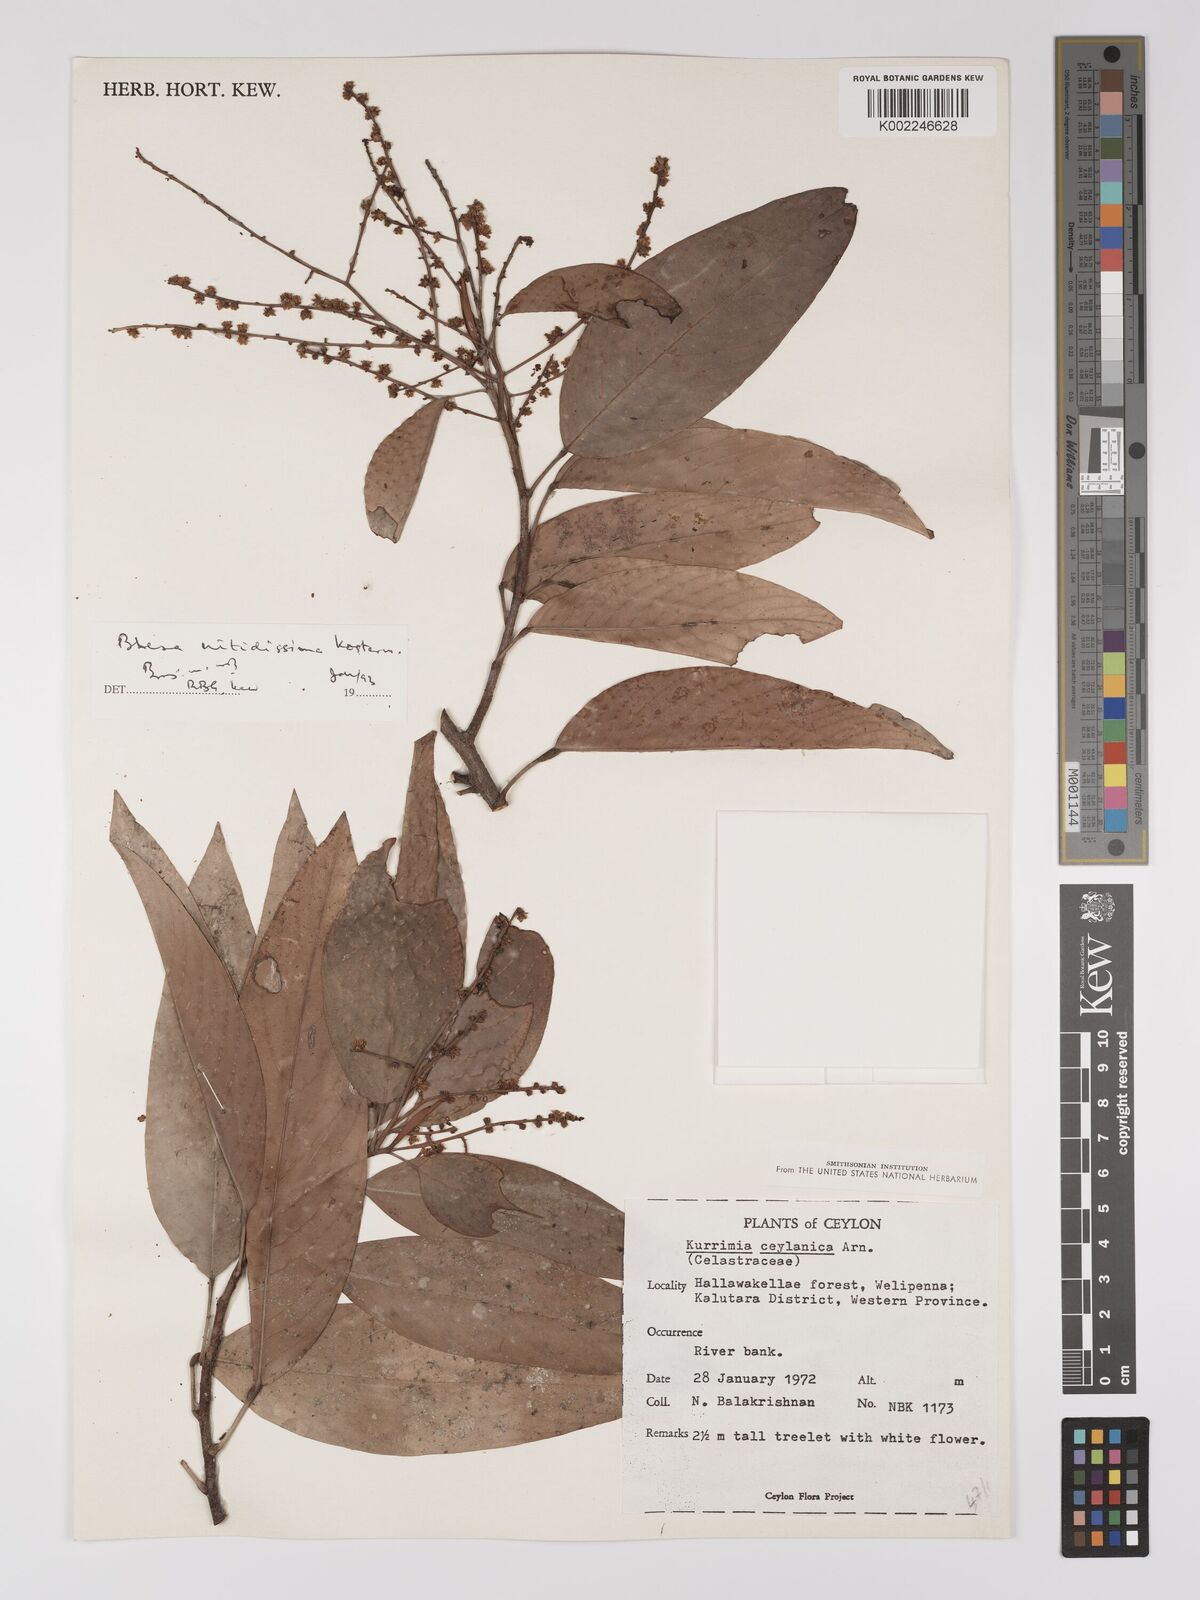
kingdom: Plantae
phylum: Tracheophyta
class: Magnoliopsida
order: Malpighiales
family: Centroplacaceae
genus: Bhesa
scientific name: Bhesa nitidissima
